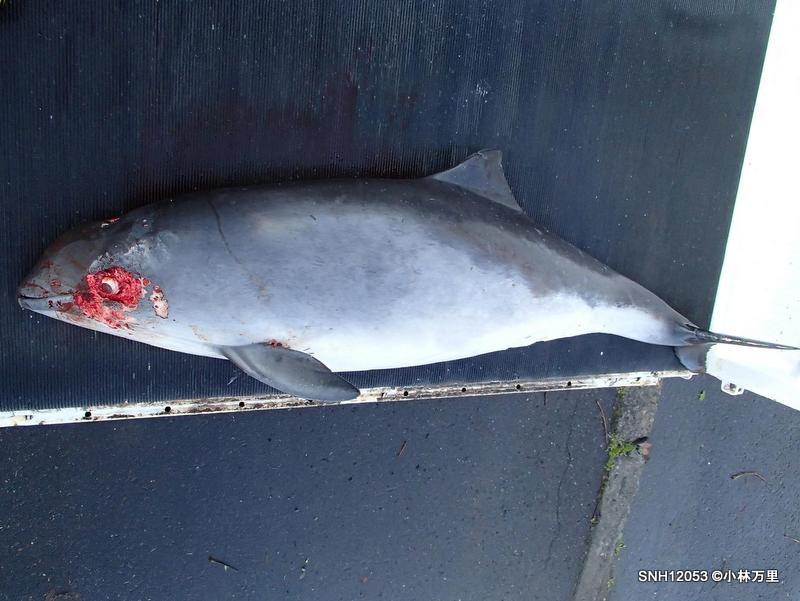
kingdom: Animalia
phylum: Chordata
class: Mammalia
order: Cetacea
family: Phocoenidae
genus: Phocoena
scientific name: Phocoena phocoena
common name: Harbour porpoise
